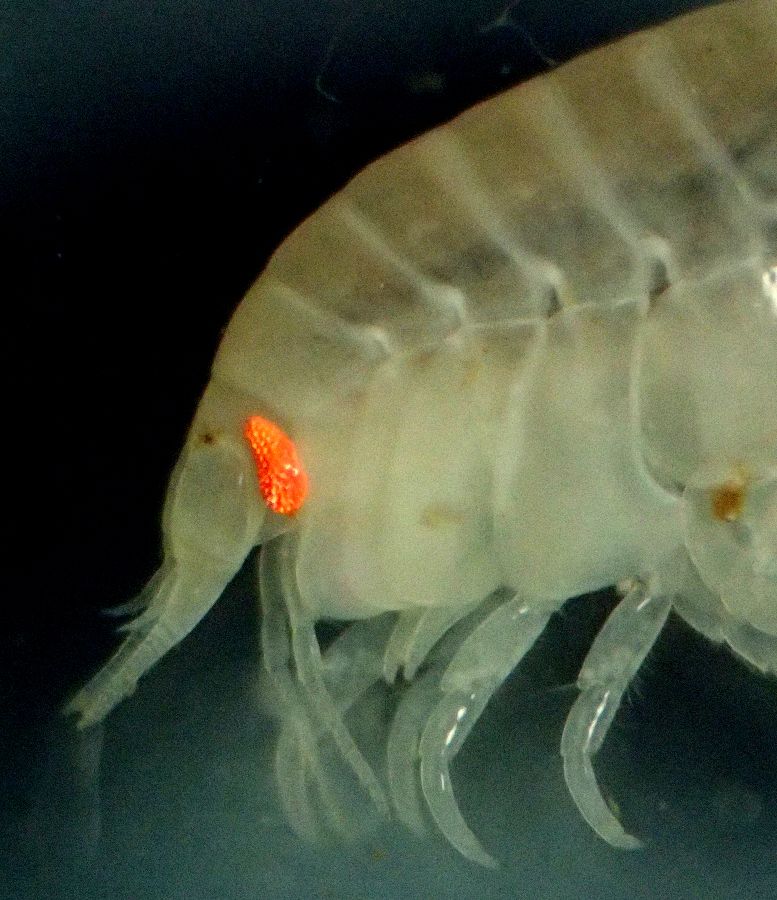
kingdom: Animalia
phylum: Arthropoda
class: Malacostraca
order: Amphipoda
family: Uristidae
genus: Menigrates
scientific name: Menigrates obtusifrons
